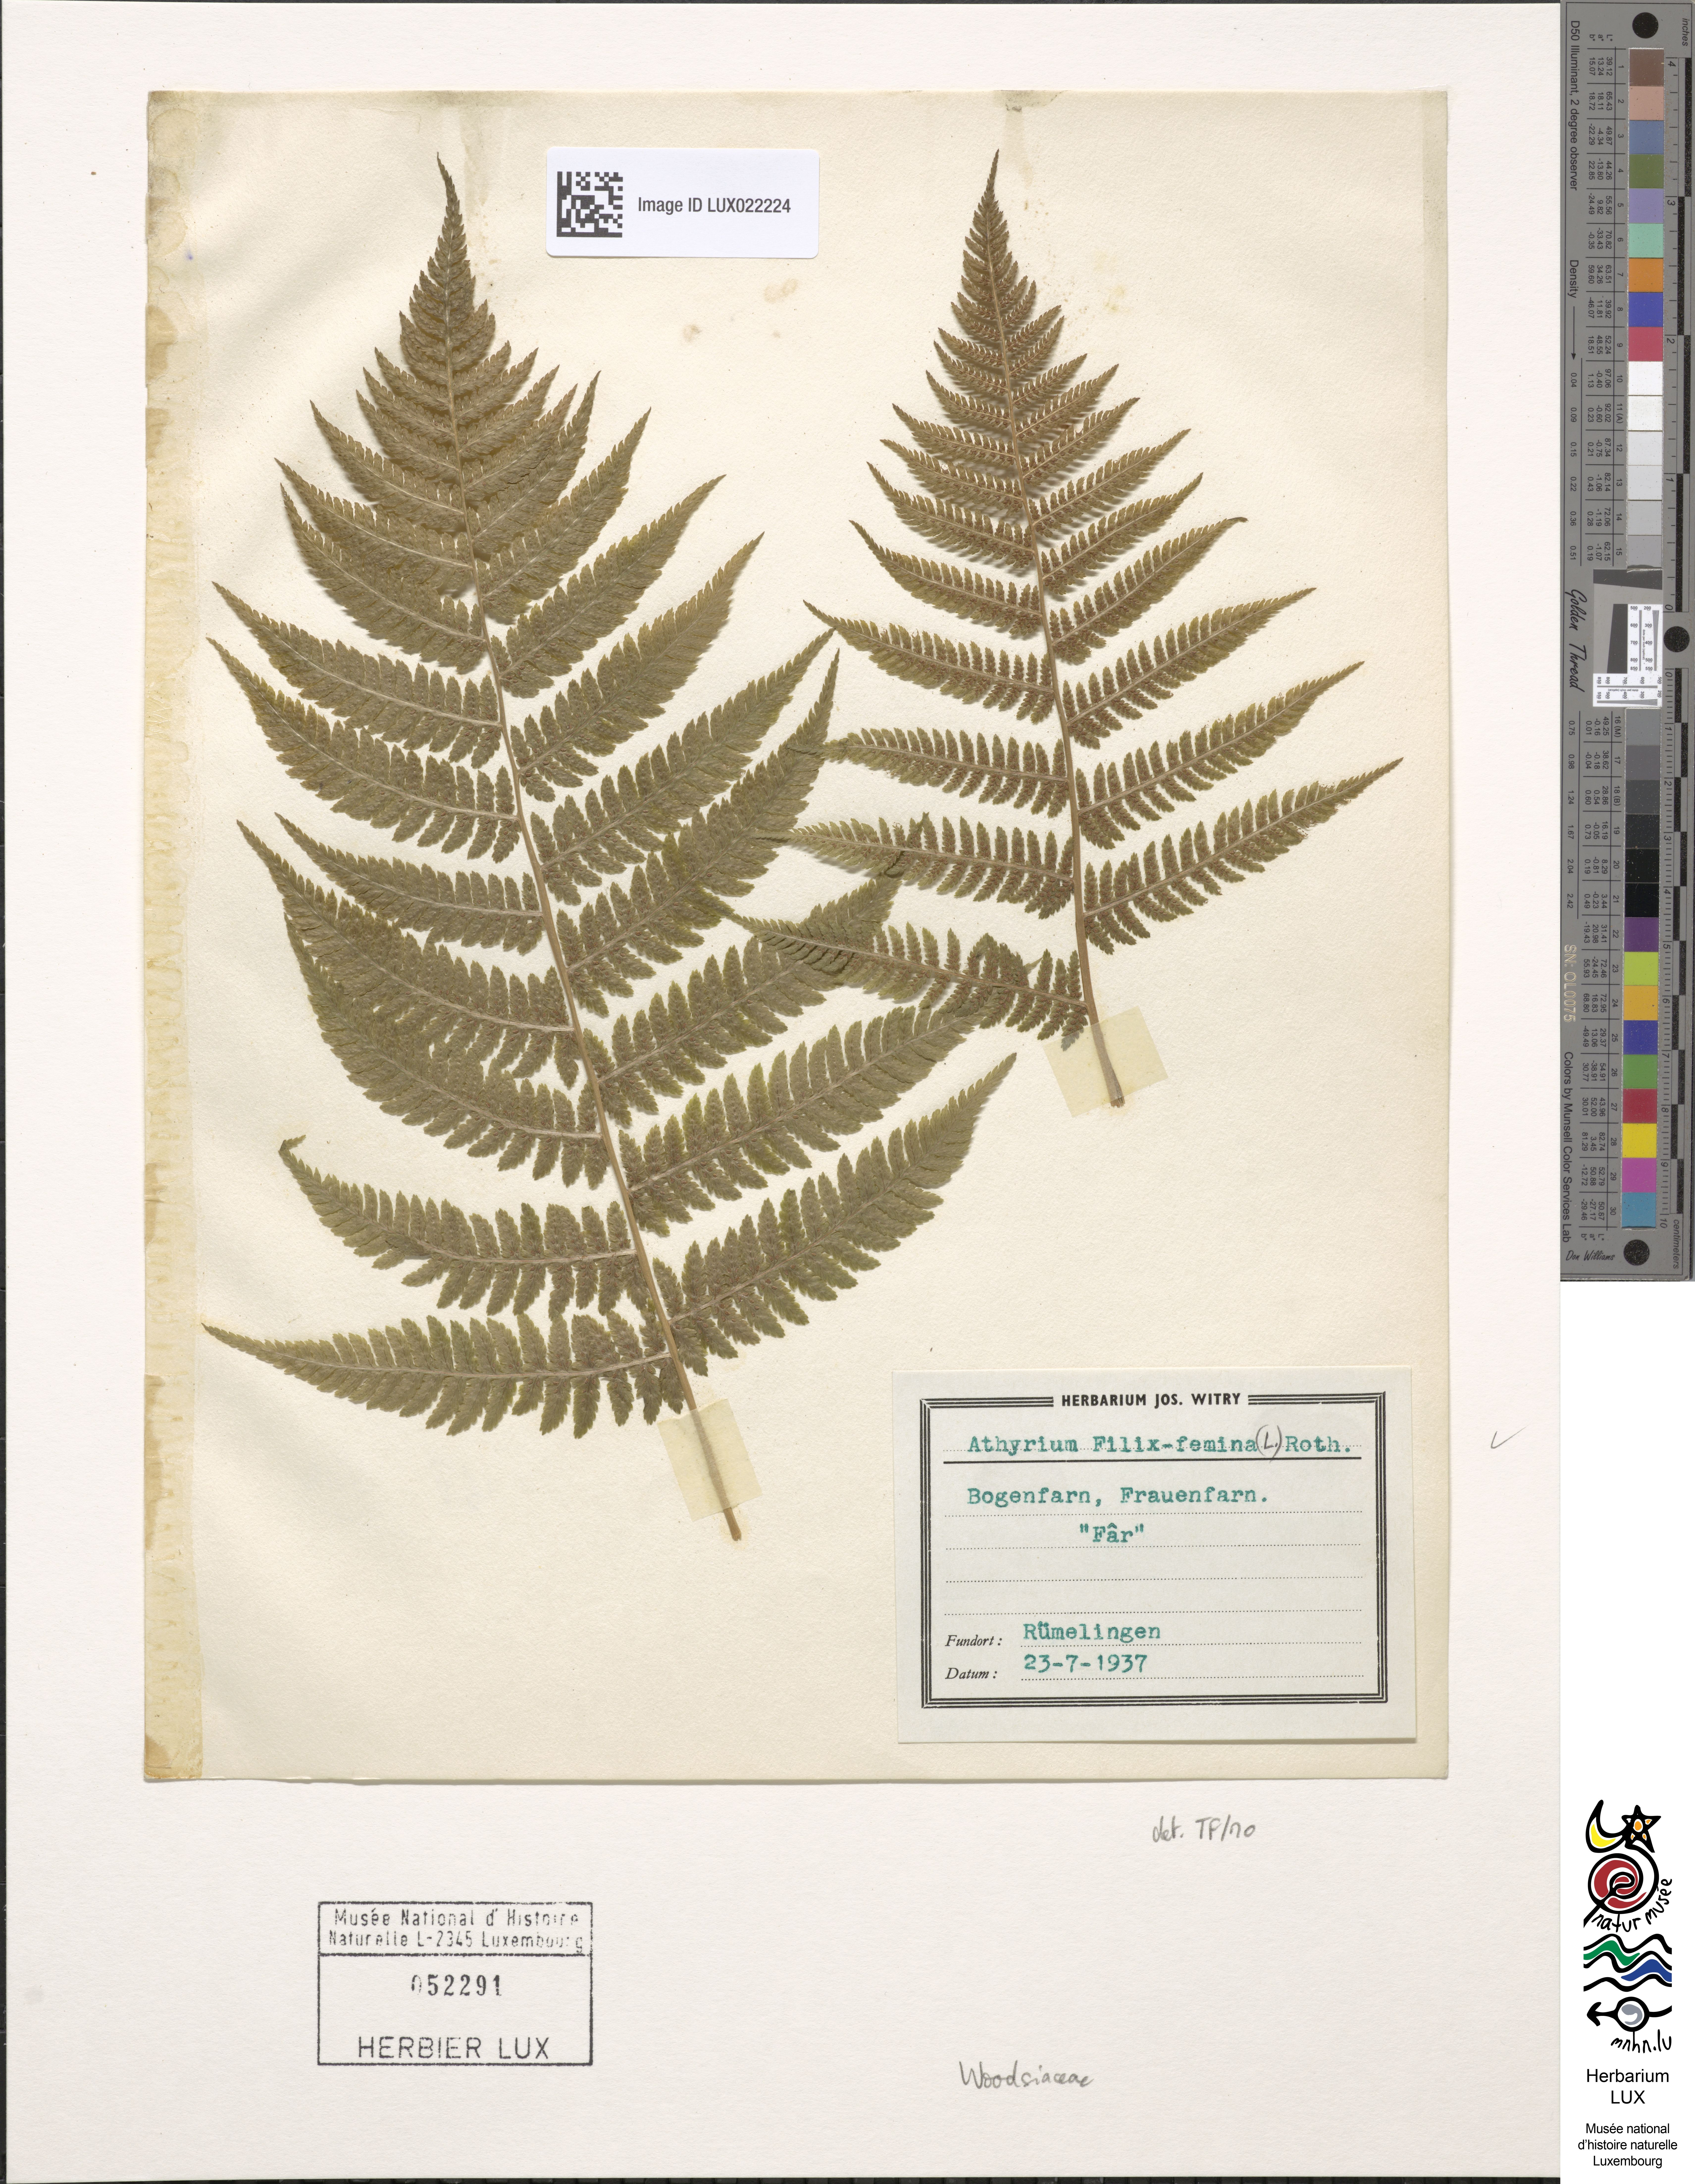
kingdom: Plantae
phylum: Tracheophyta
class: Polypodiopsida
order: Polypodiales
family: Athyriaceae
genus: Athyrium
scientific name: Athyrium filix-femina
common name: Lady fern
